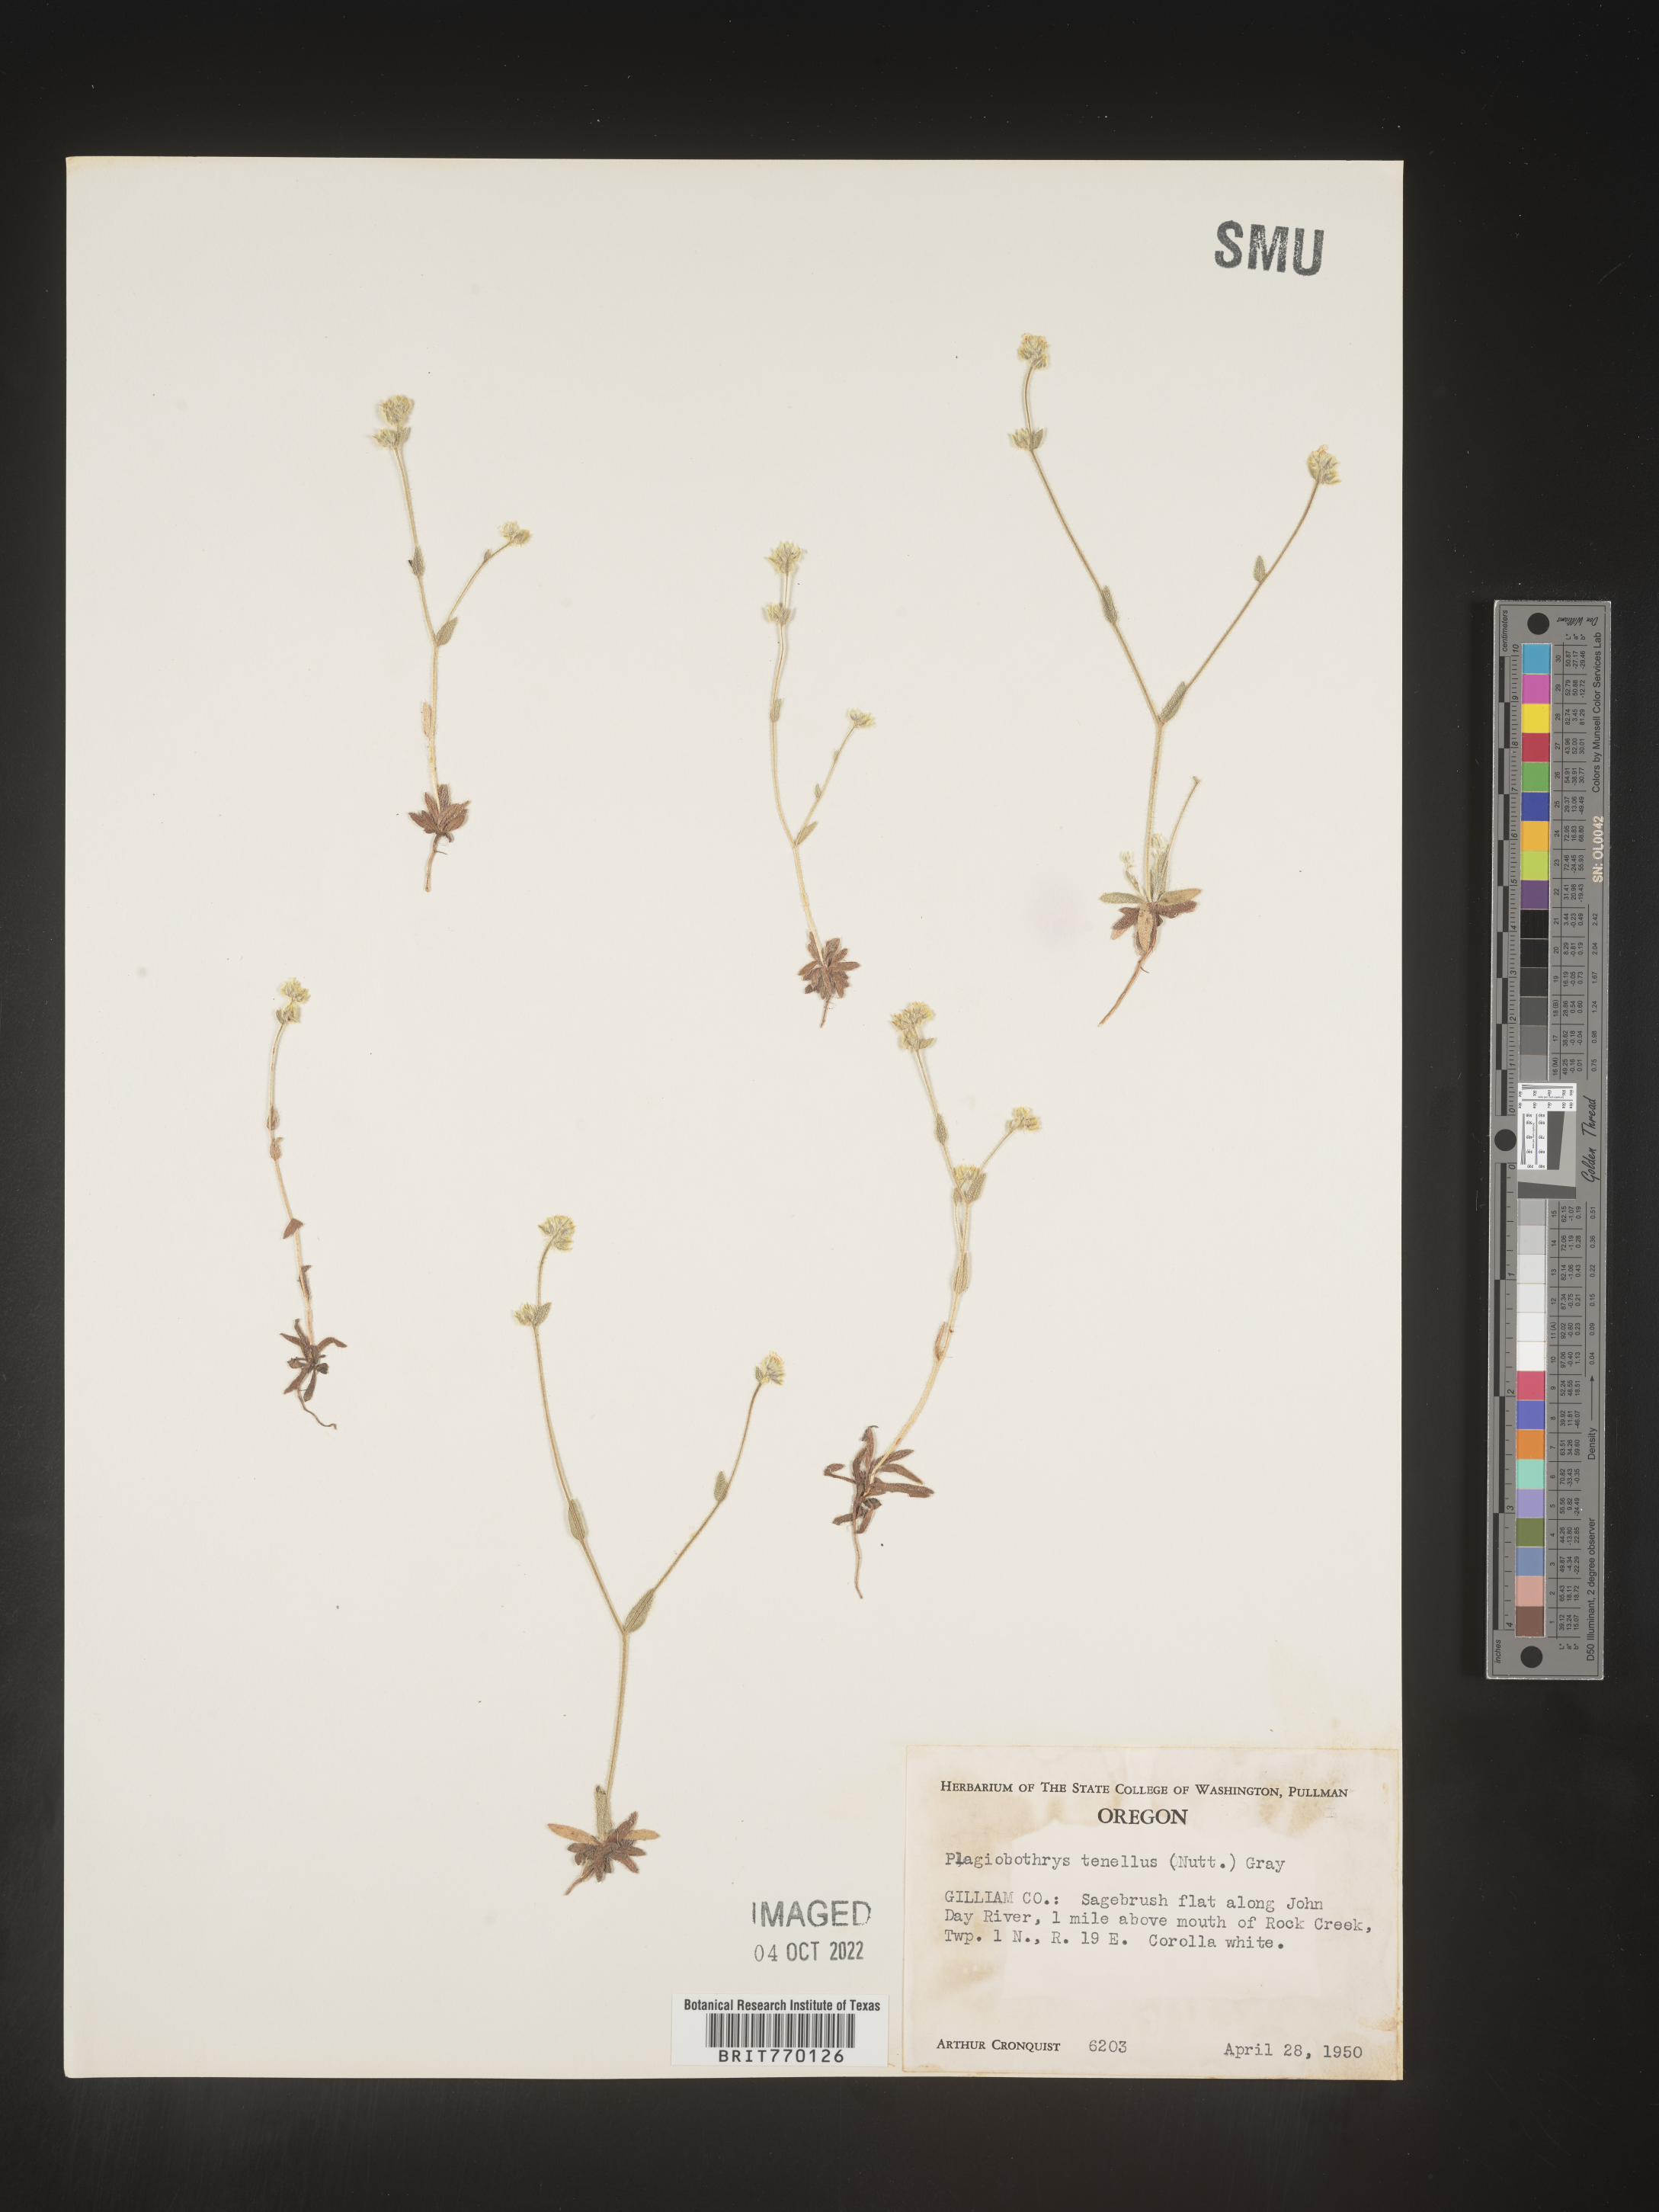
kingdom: Plantae
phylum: Tracheophyta
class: Magnoliopsida
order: Boraginales
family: Boraginaceae
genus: Plagiobothrys
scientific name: Plagiobothrys
